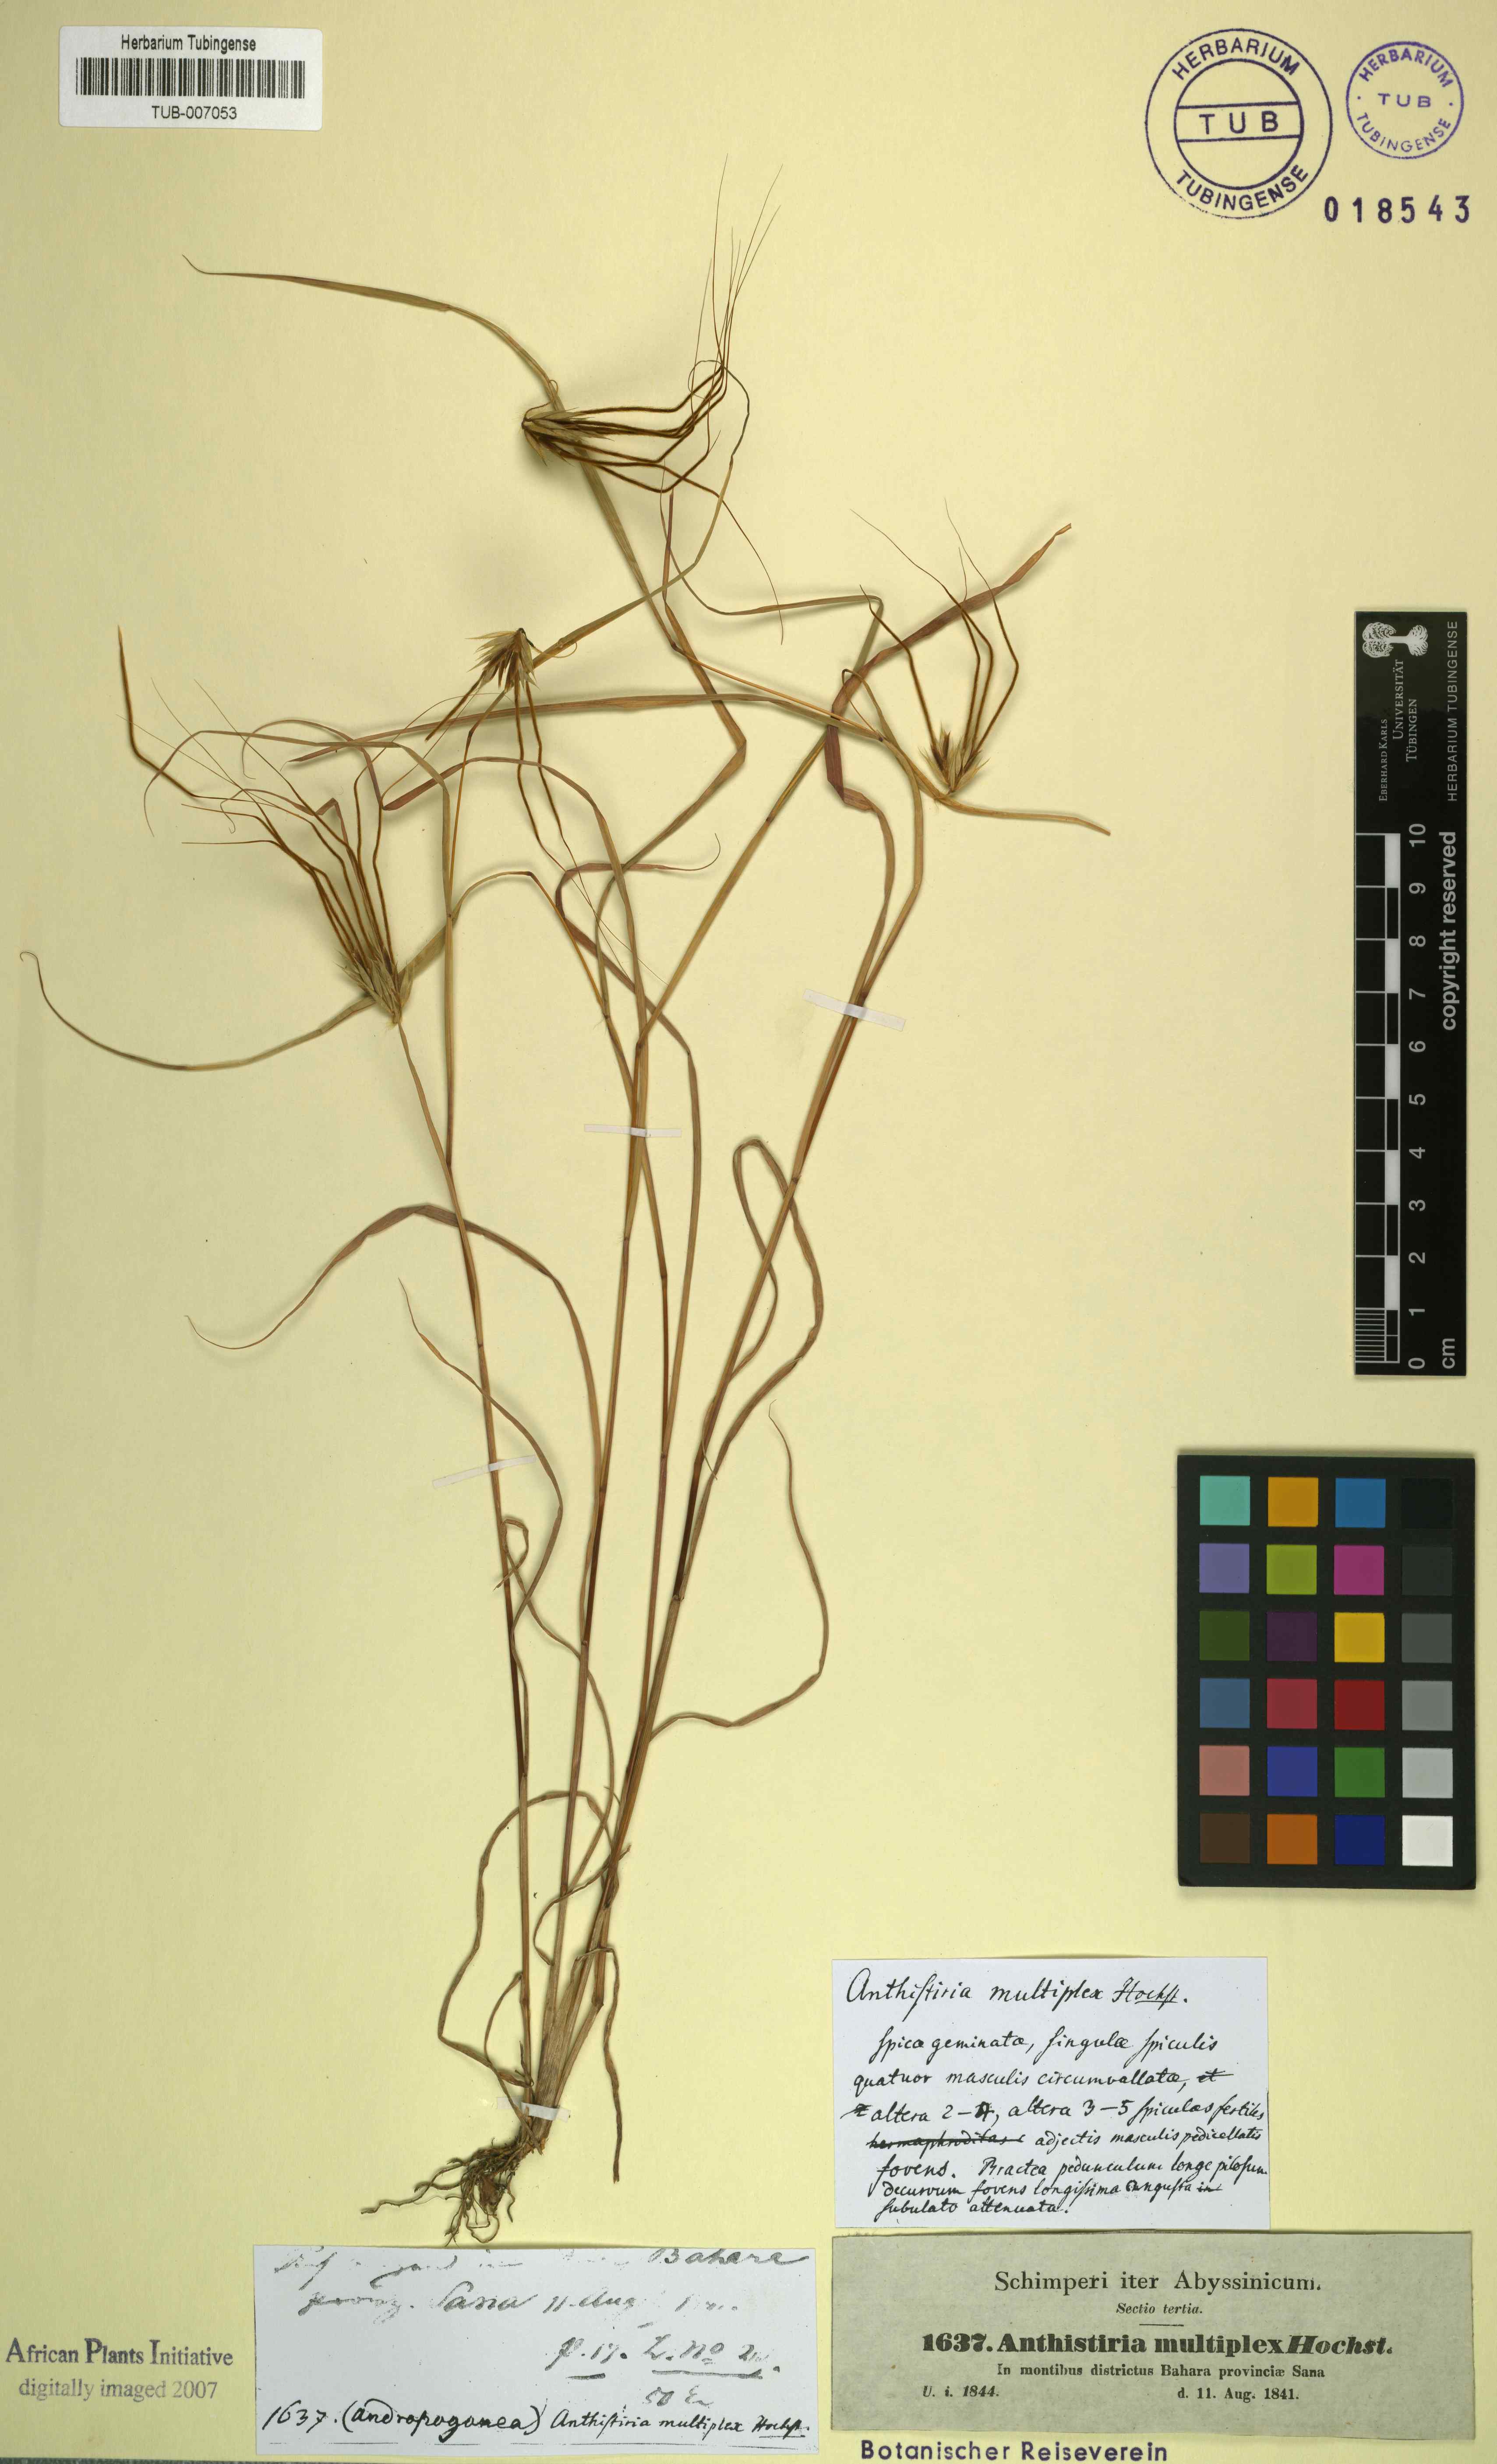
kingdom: Plantae
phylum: Tracheophyta
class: Liliopsida
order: Poales
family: Poaceae
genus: Hyparrhenia
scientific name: Hyparrhenia multiplex
